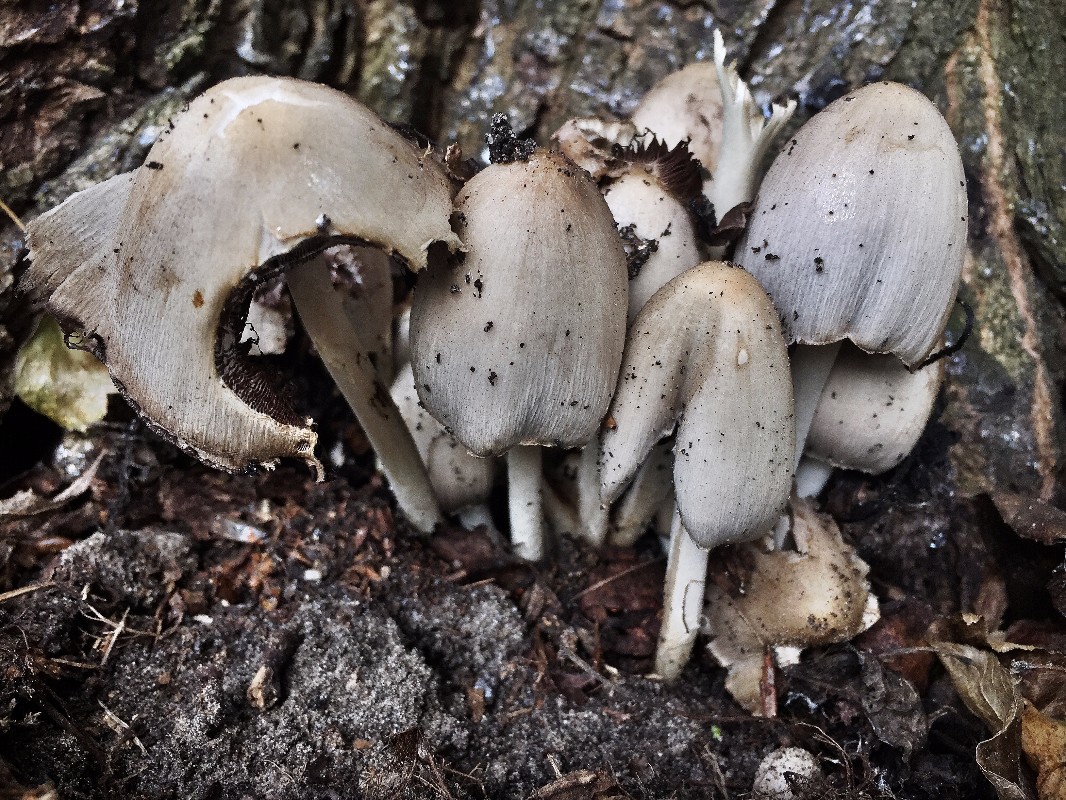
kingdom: Fungi
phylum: Basidiomycota
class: Agaricomycetes
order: Agaricales
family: Psathyrellaceae
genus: Coprinopsis
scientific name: Coprinopsis atramentaria
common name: almindelig blækhat
